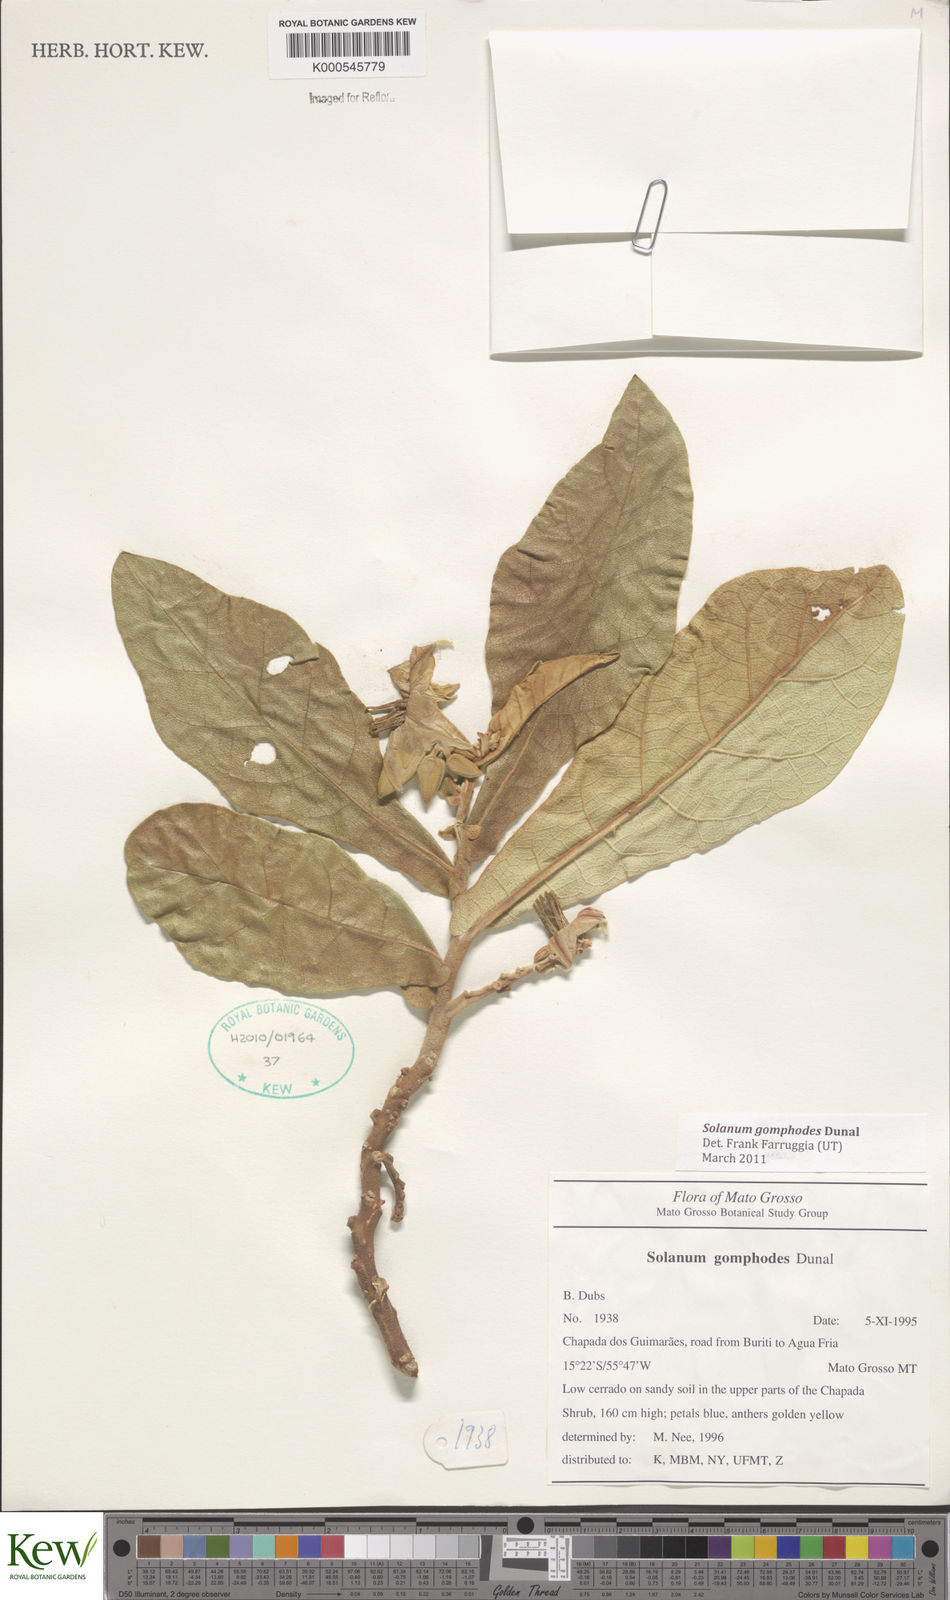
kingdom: Plantae
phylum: Tracheophyta
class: Magnoliopsida
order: Solanales
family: Solanaceae
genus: Solanum
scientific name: Solanum gomphodes
